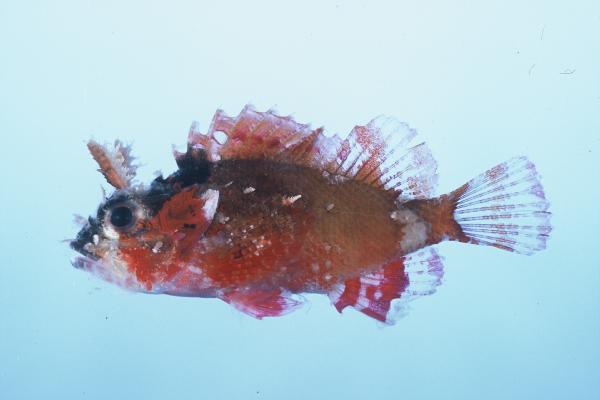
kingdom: Animalia
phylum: Chordata
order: Scorpaeniformes
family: Scorpaenidae
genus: Parascorpaena
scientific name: Parascorpaena mossambica
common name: Mozambique scorpionfish
